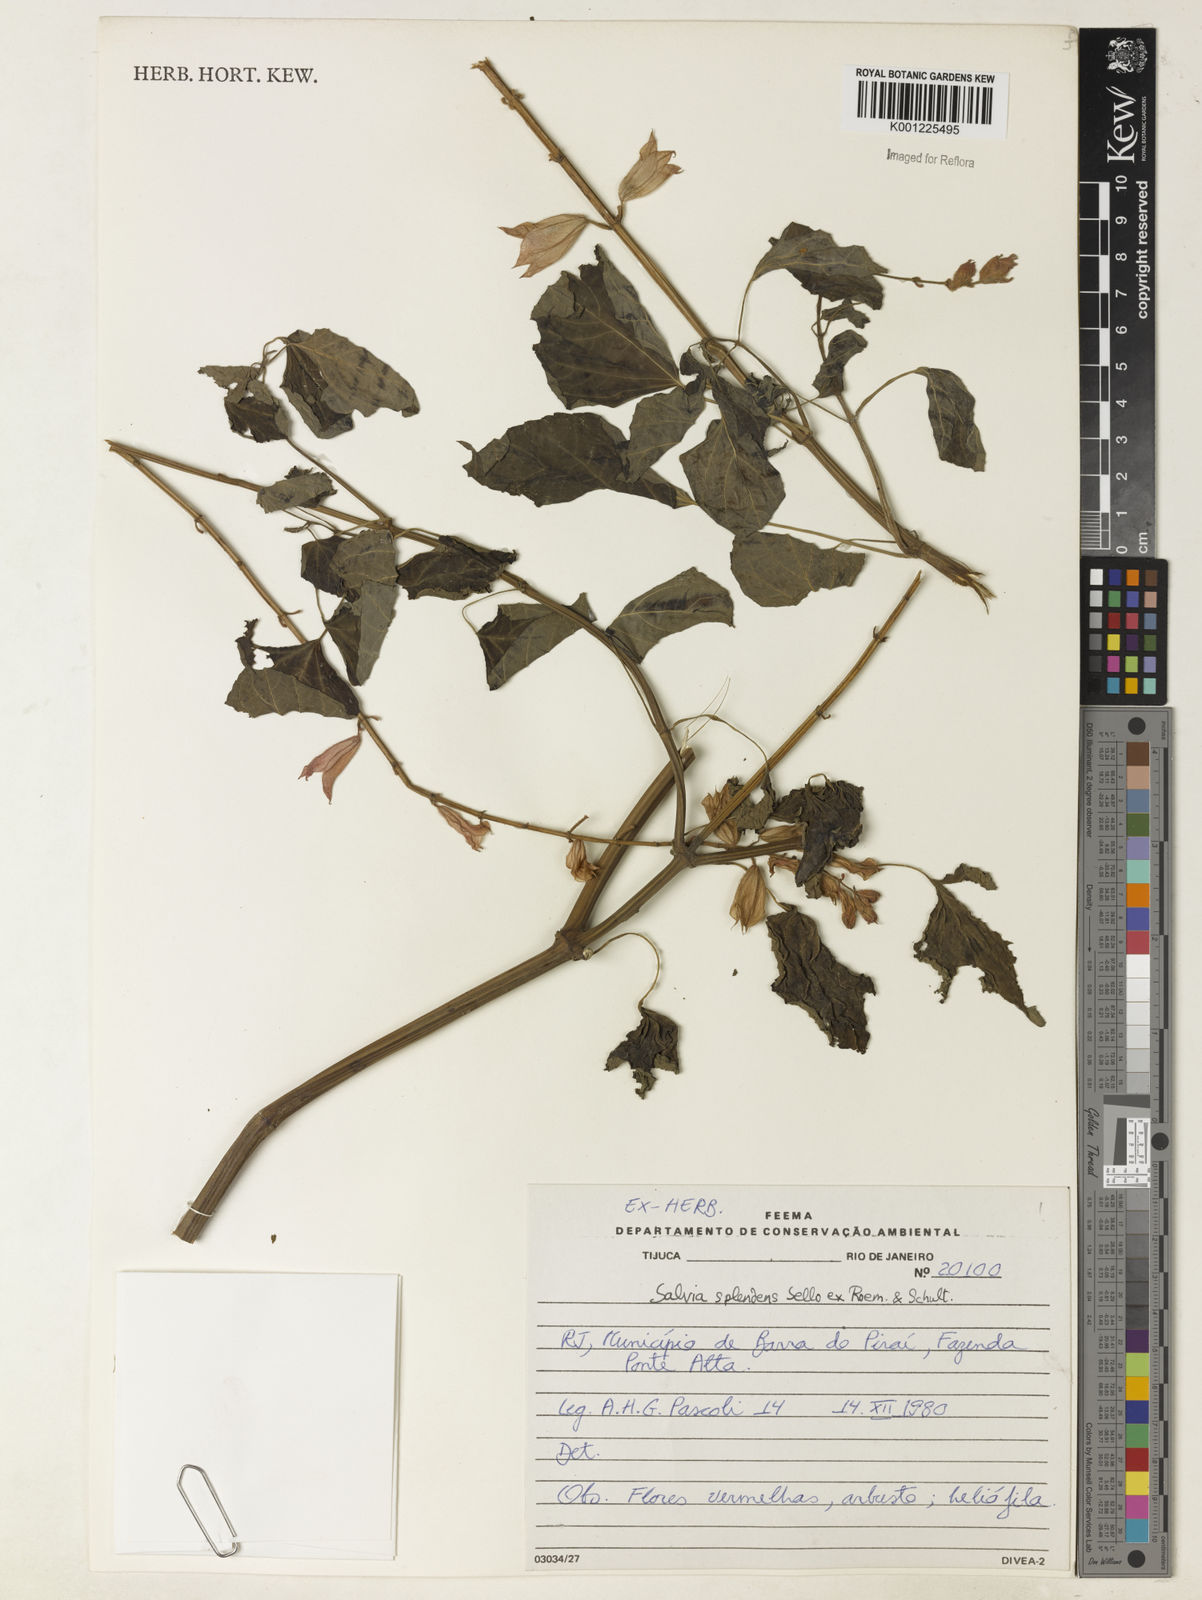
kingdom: Plantae
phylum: Tracheophyta
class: Magnoliopsida
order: Lamiales
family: Lamiaceae
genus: Salvia
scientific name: Salvia
